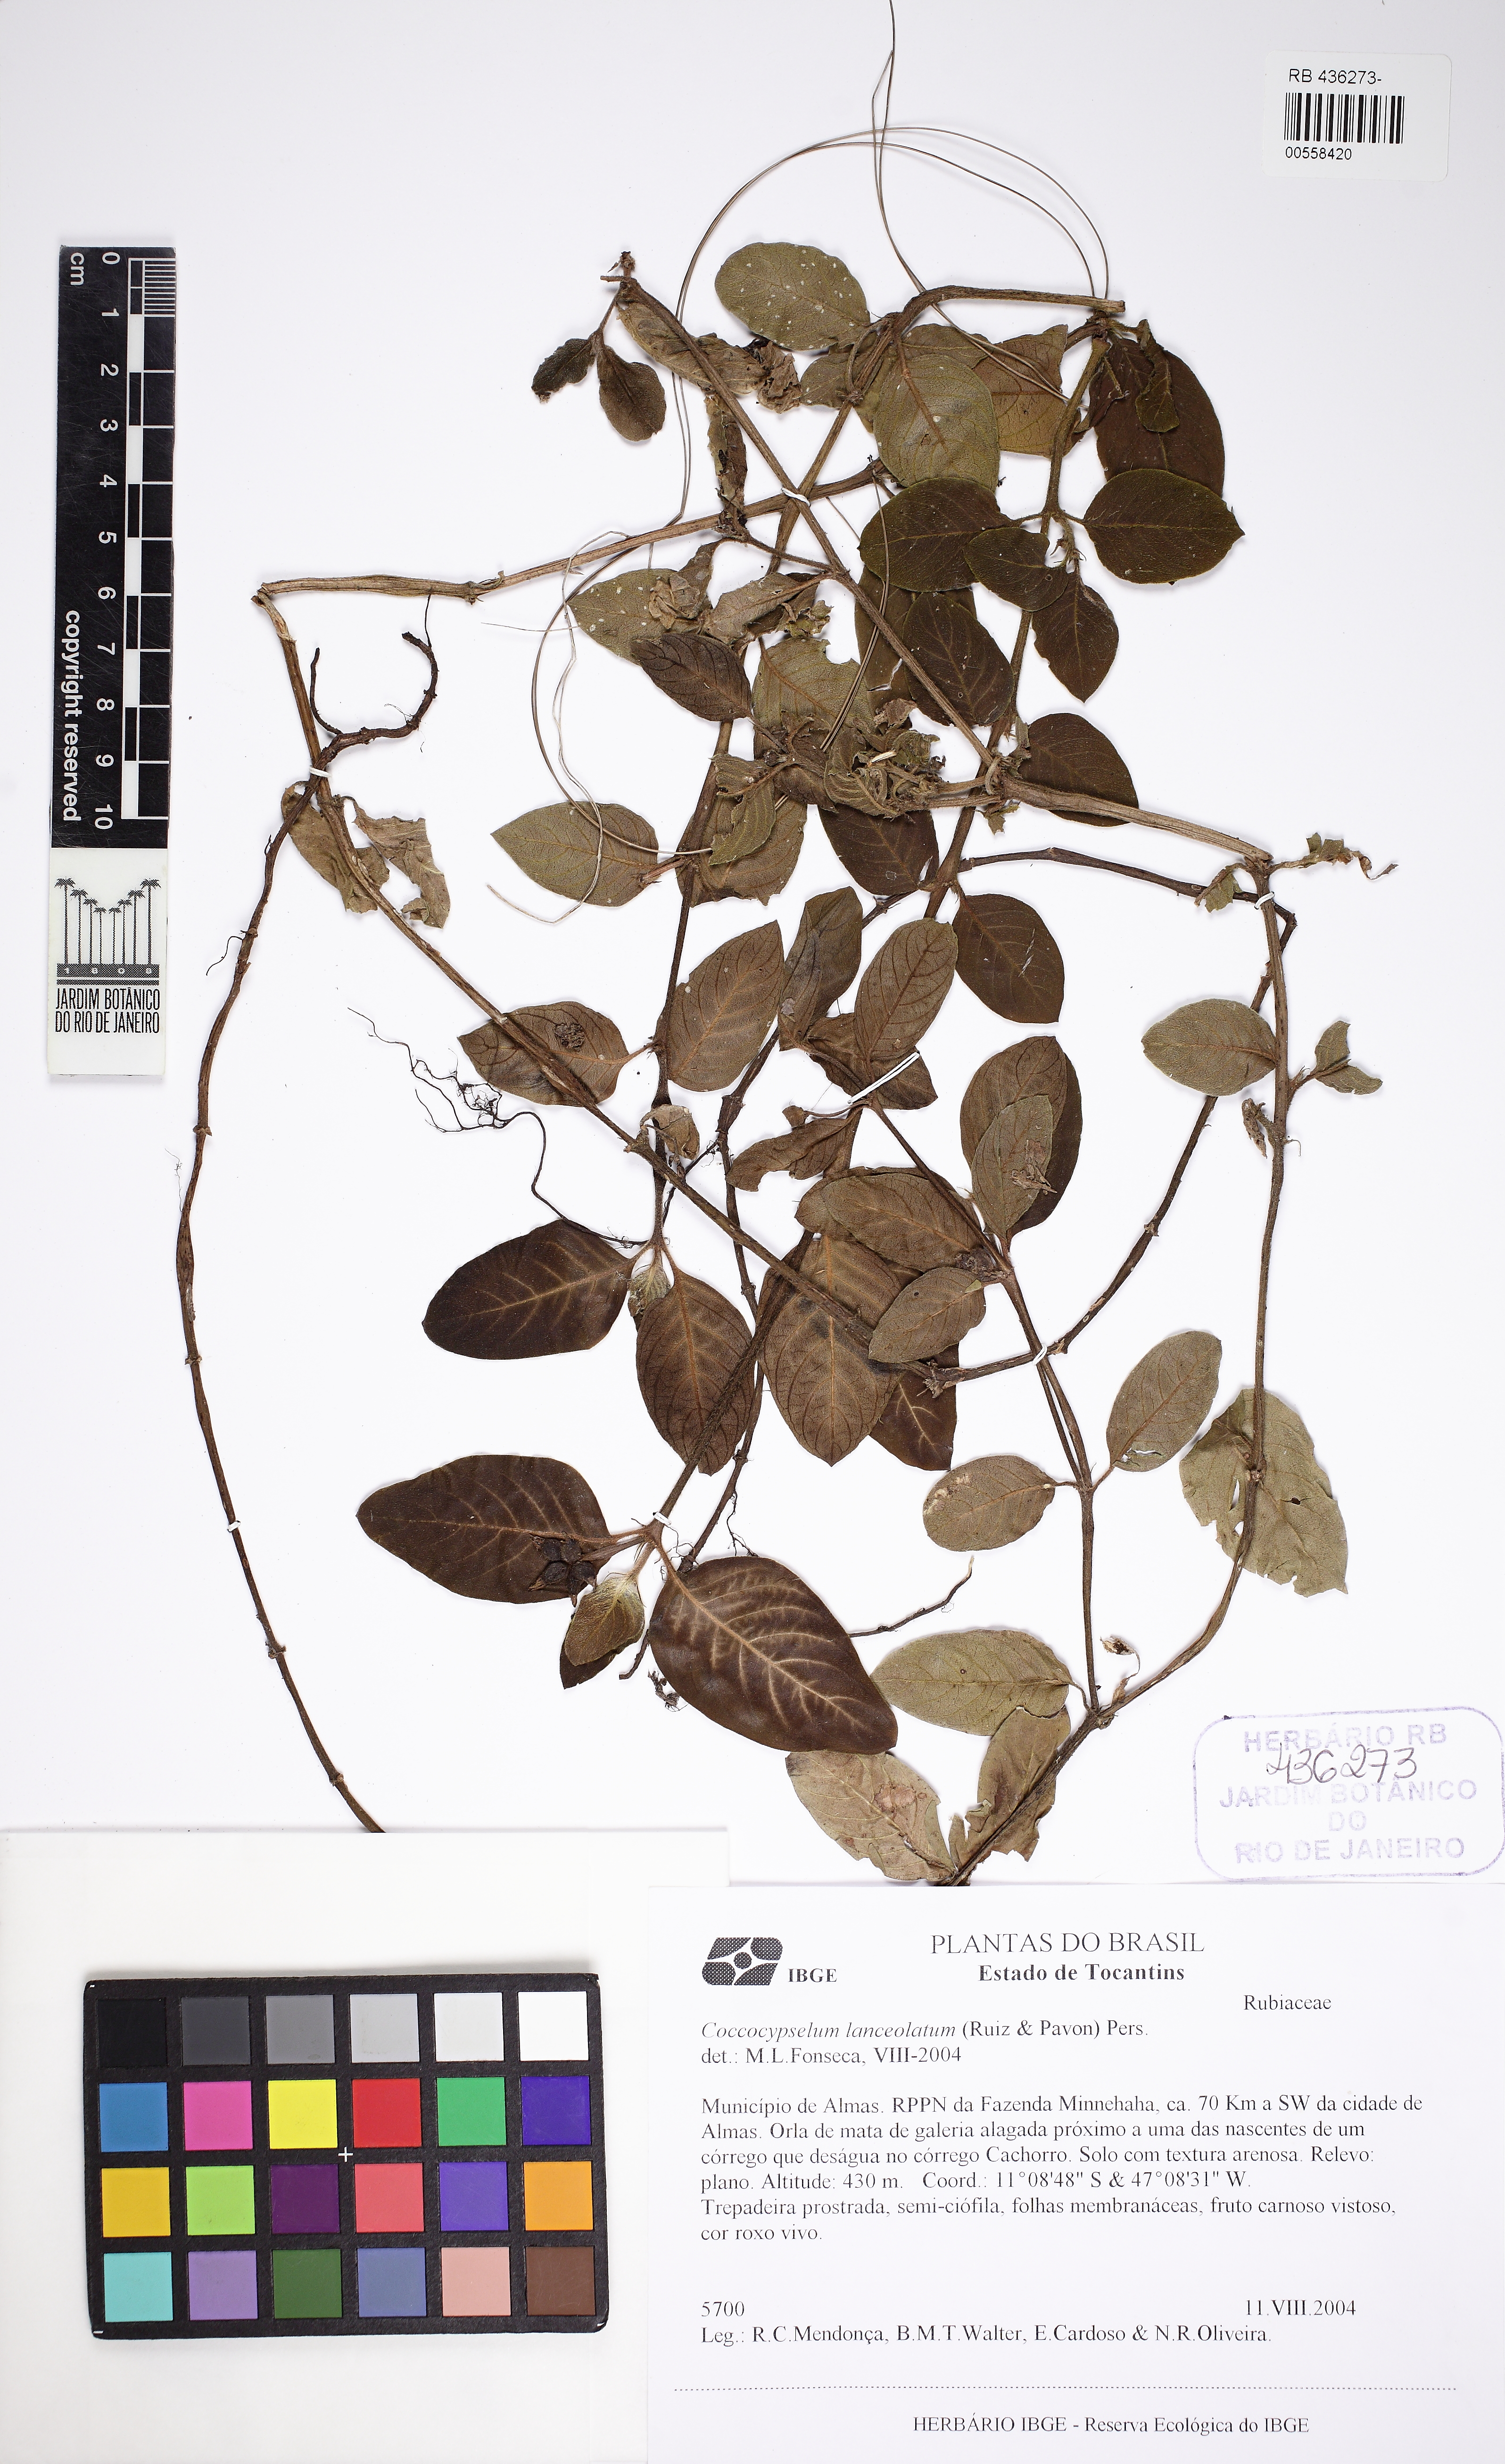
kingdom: Plantae
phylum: Tracheophyta
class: Magnoliopsida
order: Gentianales
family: Rubiaceae
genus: Coccocypselum
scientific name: Coccocypselum lanceolatum
